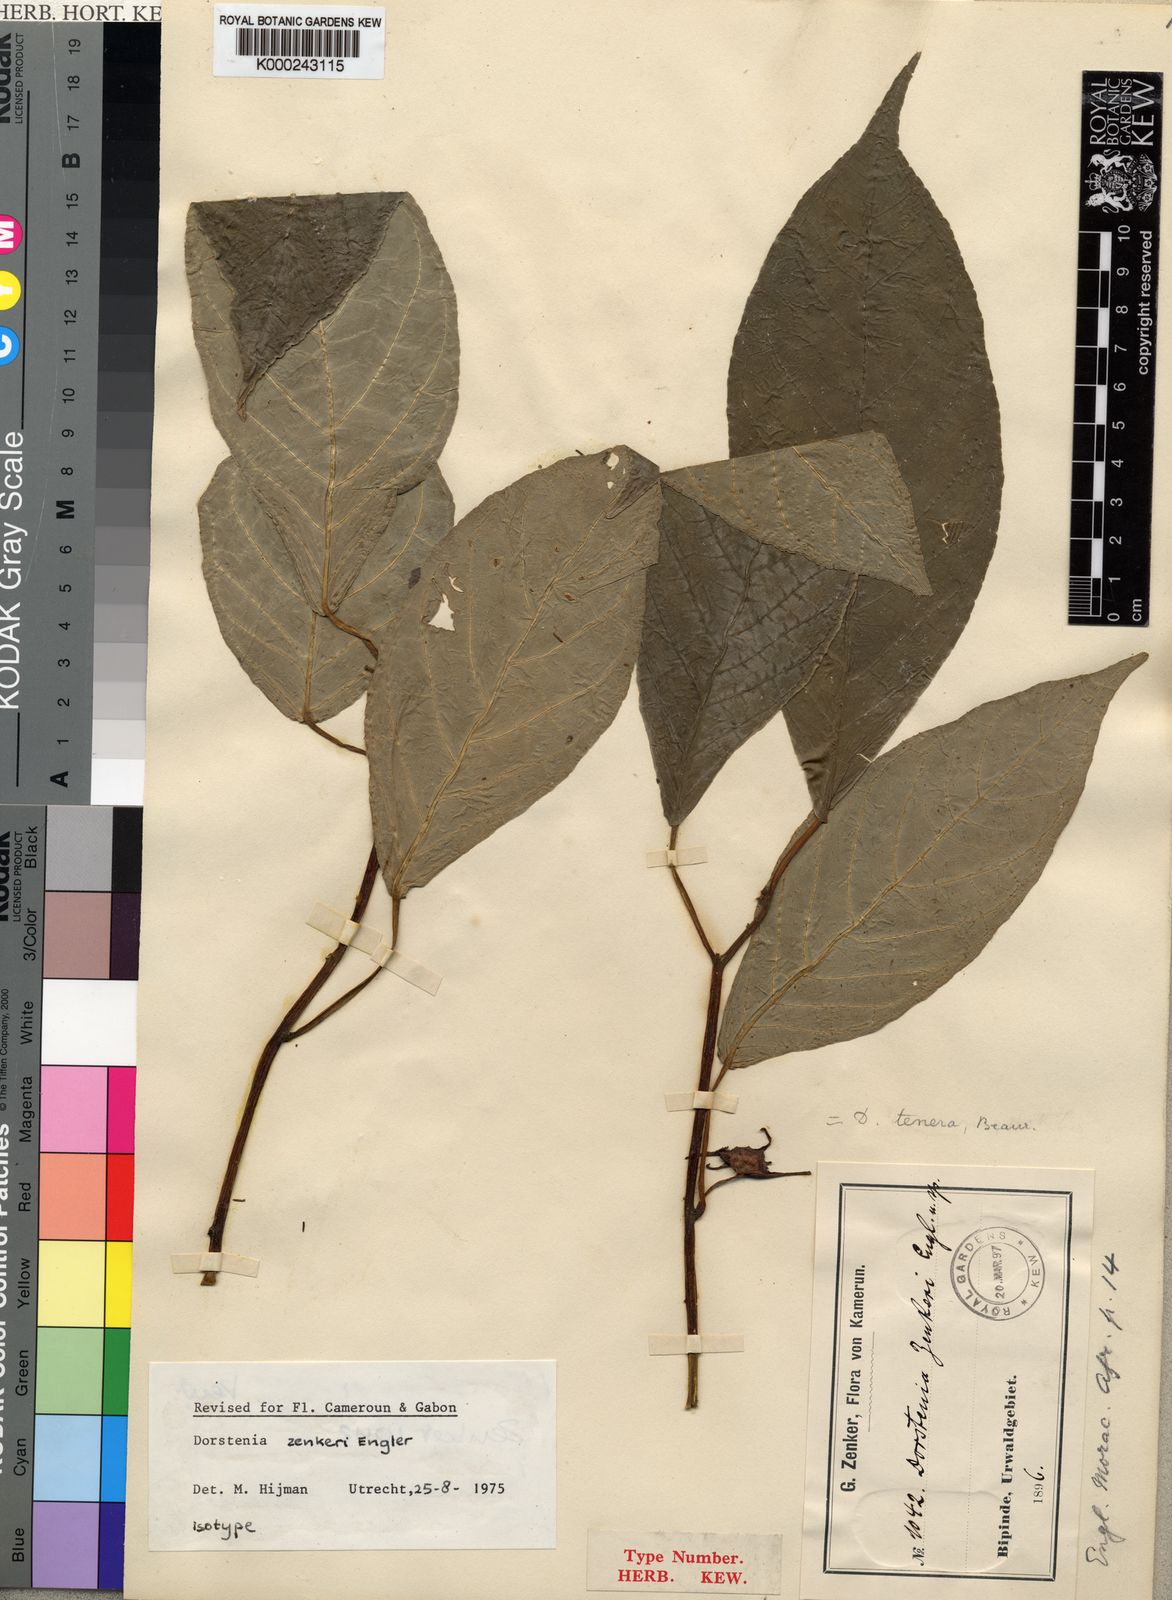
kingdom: Plantae
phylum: Tracheophyta
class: Magnoliopsida
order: Rosales
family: Moraceae
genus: Dorstenia
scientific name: Dorstenia zenkeri
